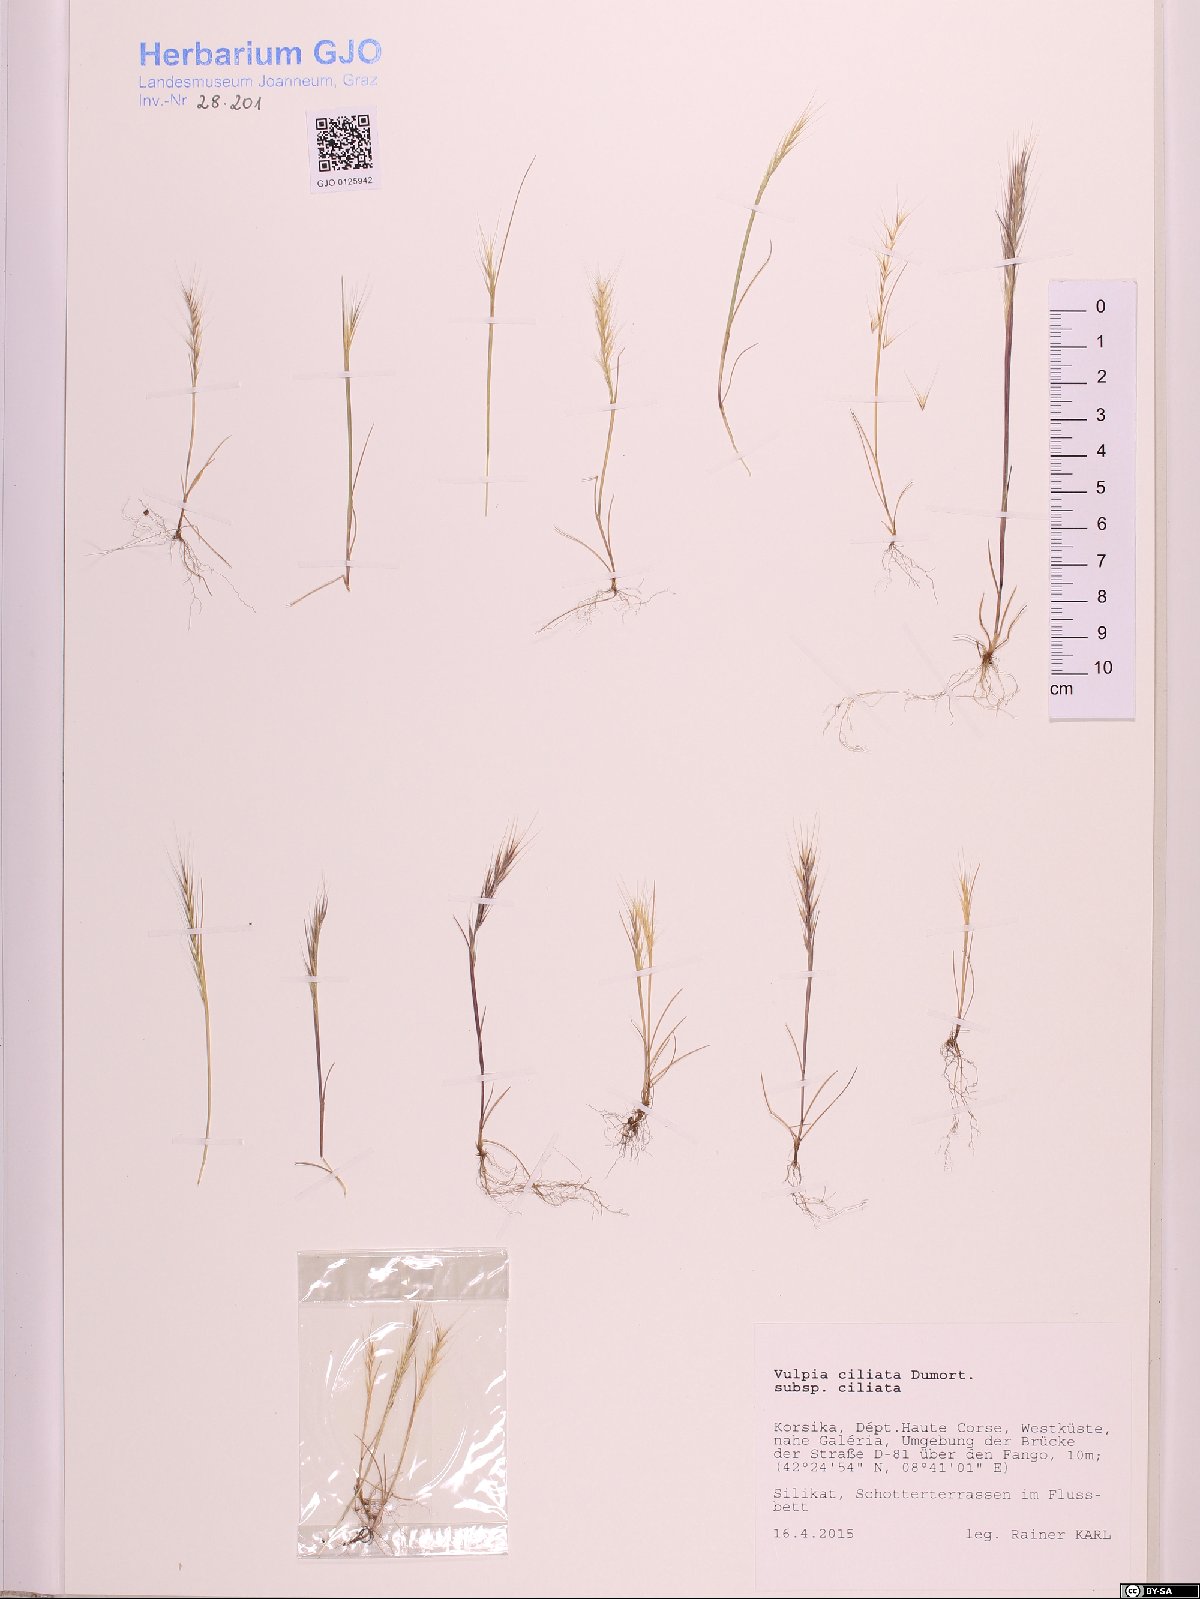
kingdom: Plantae
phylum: Tracheophyta
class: Liliopsida
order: Poales
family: Poaceae
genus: Festuca
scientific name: Festuca ambigua
